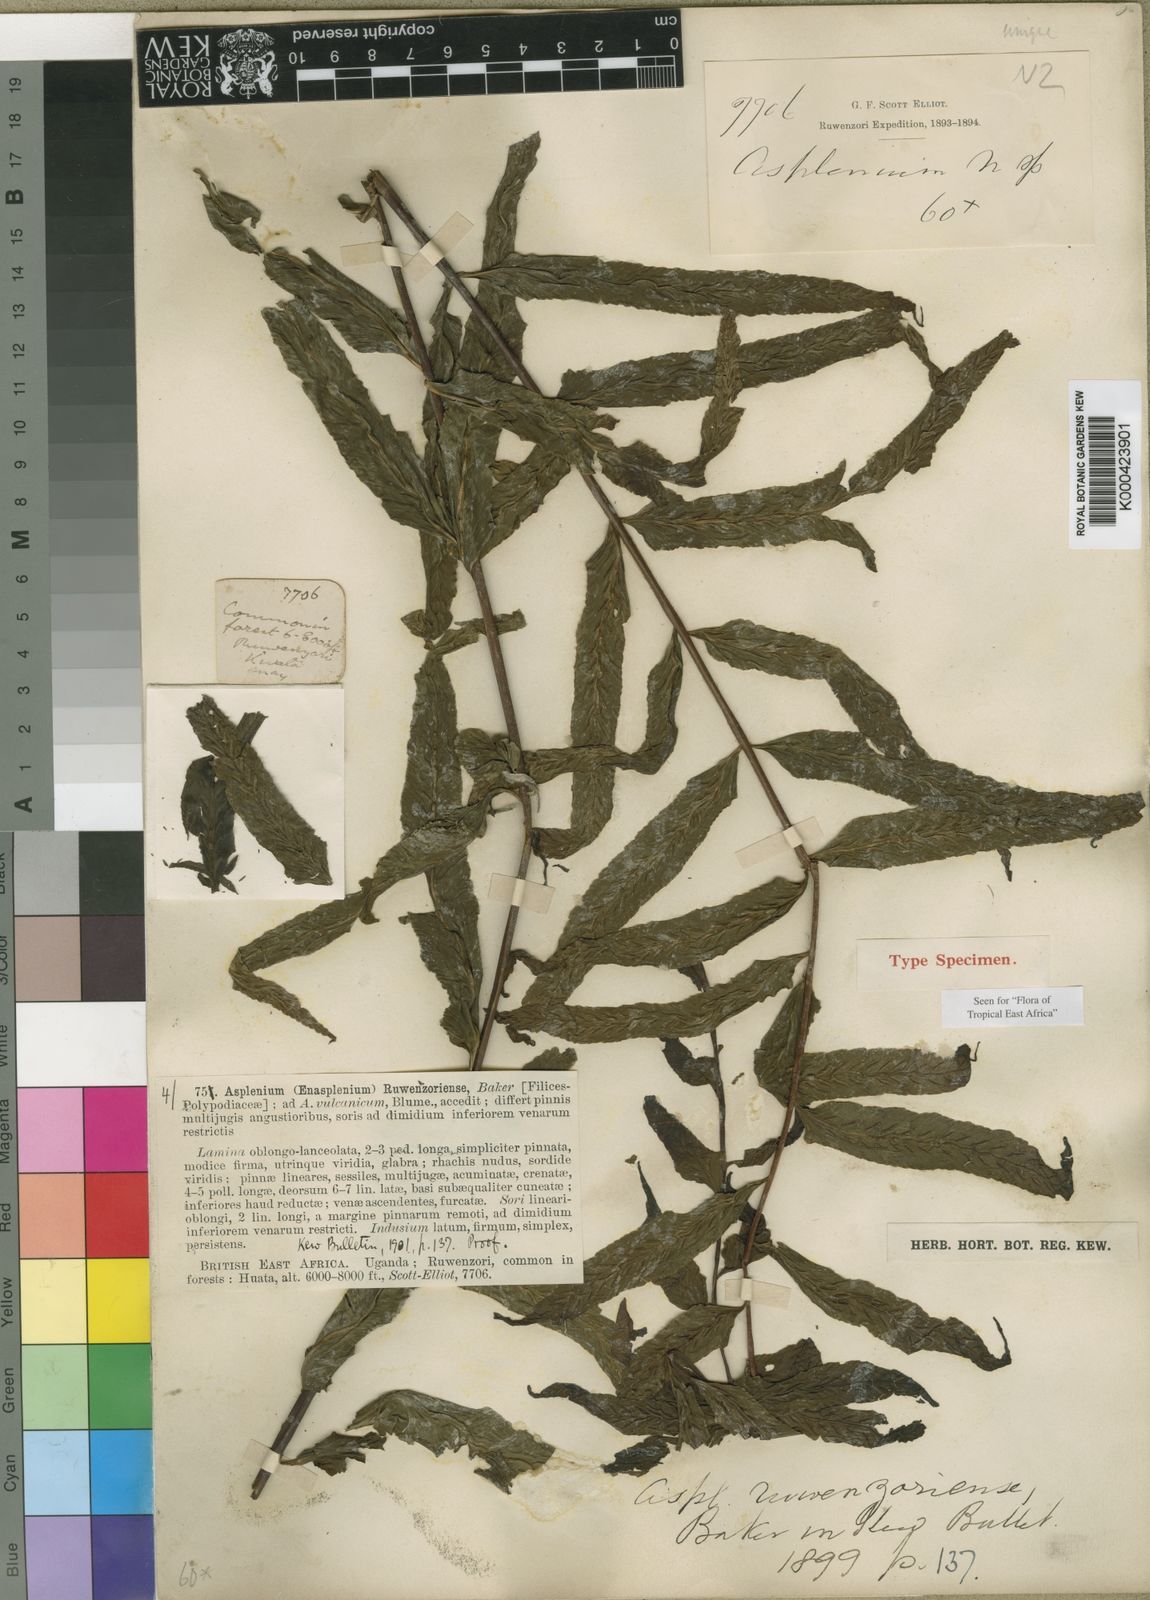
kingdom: Plantae
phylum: Tracheophyta
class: Polypodiopsida
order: Polypodiales
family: Aspleniaceae
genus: Asplenium
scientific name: Asplenium ruwenzoriense
